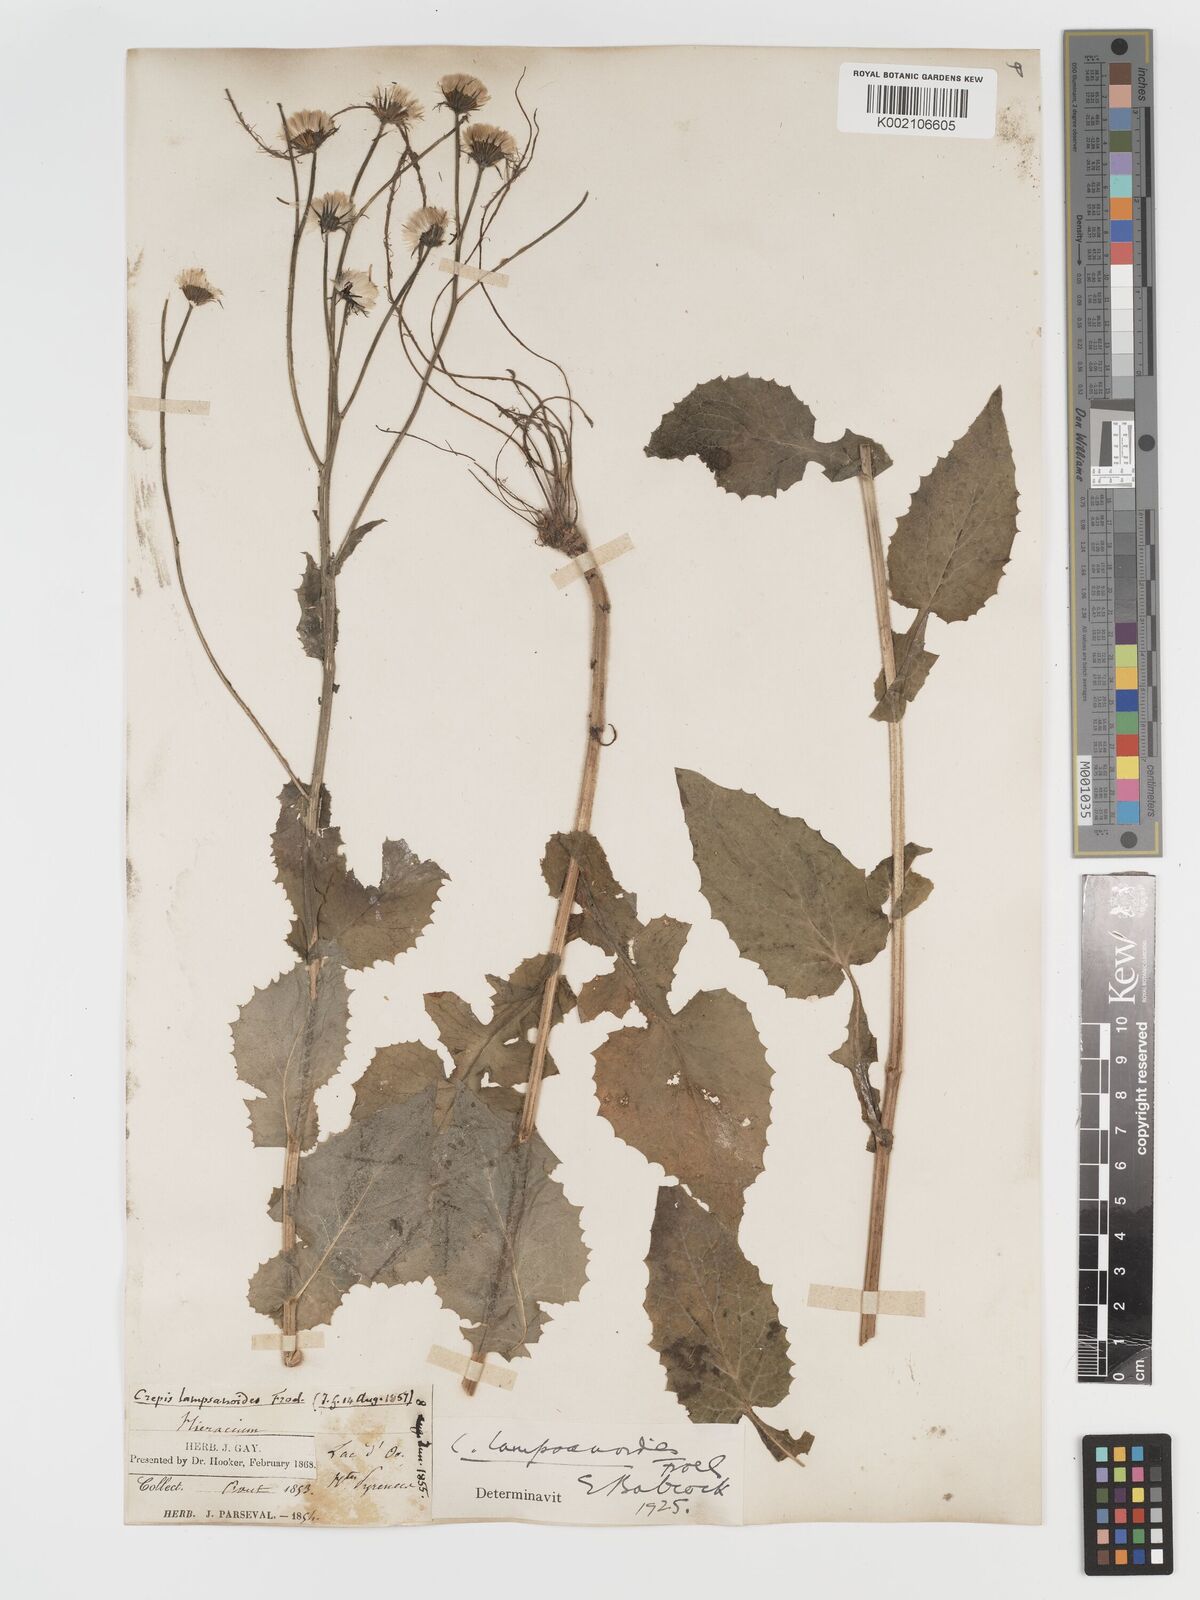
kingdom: Plantae
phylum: Tracheophyta
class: Magnoliopsida
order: Asterales
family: Asteraceae
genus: Crepis
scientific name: Crepis lampsanoides
